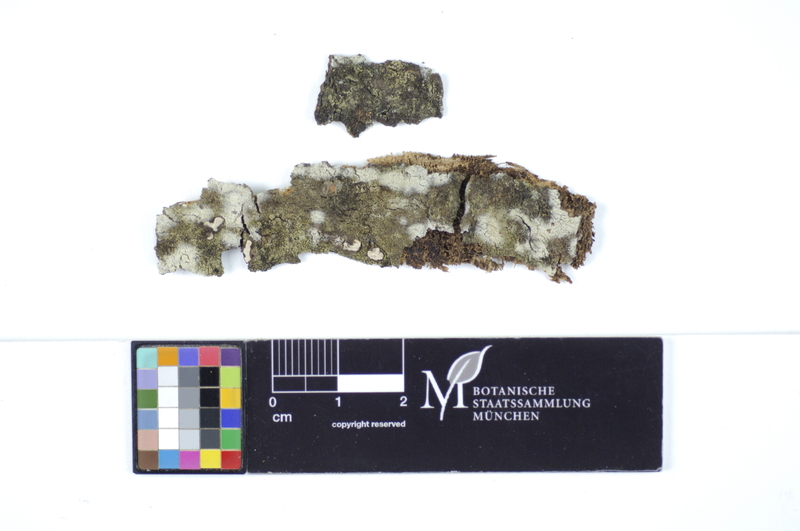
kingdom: Plantae
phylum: Tracheophyta
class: Magnoliopsida
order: Malpighiales
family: Salicaceae
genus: Populus
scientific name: Populus tremula
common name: European aspen
